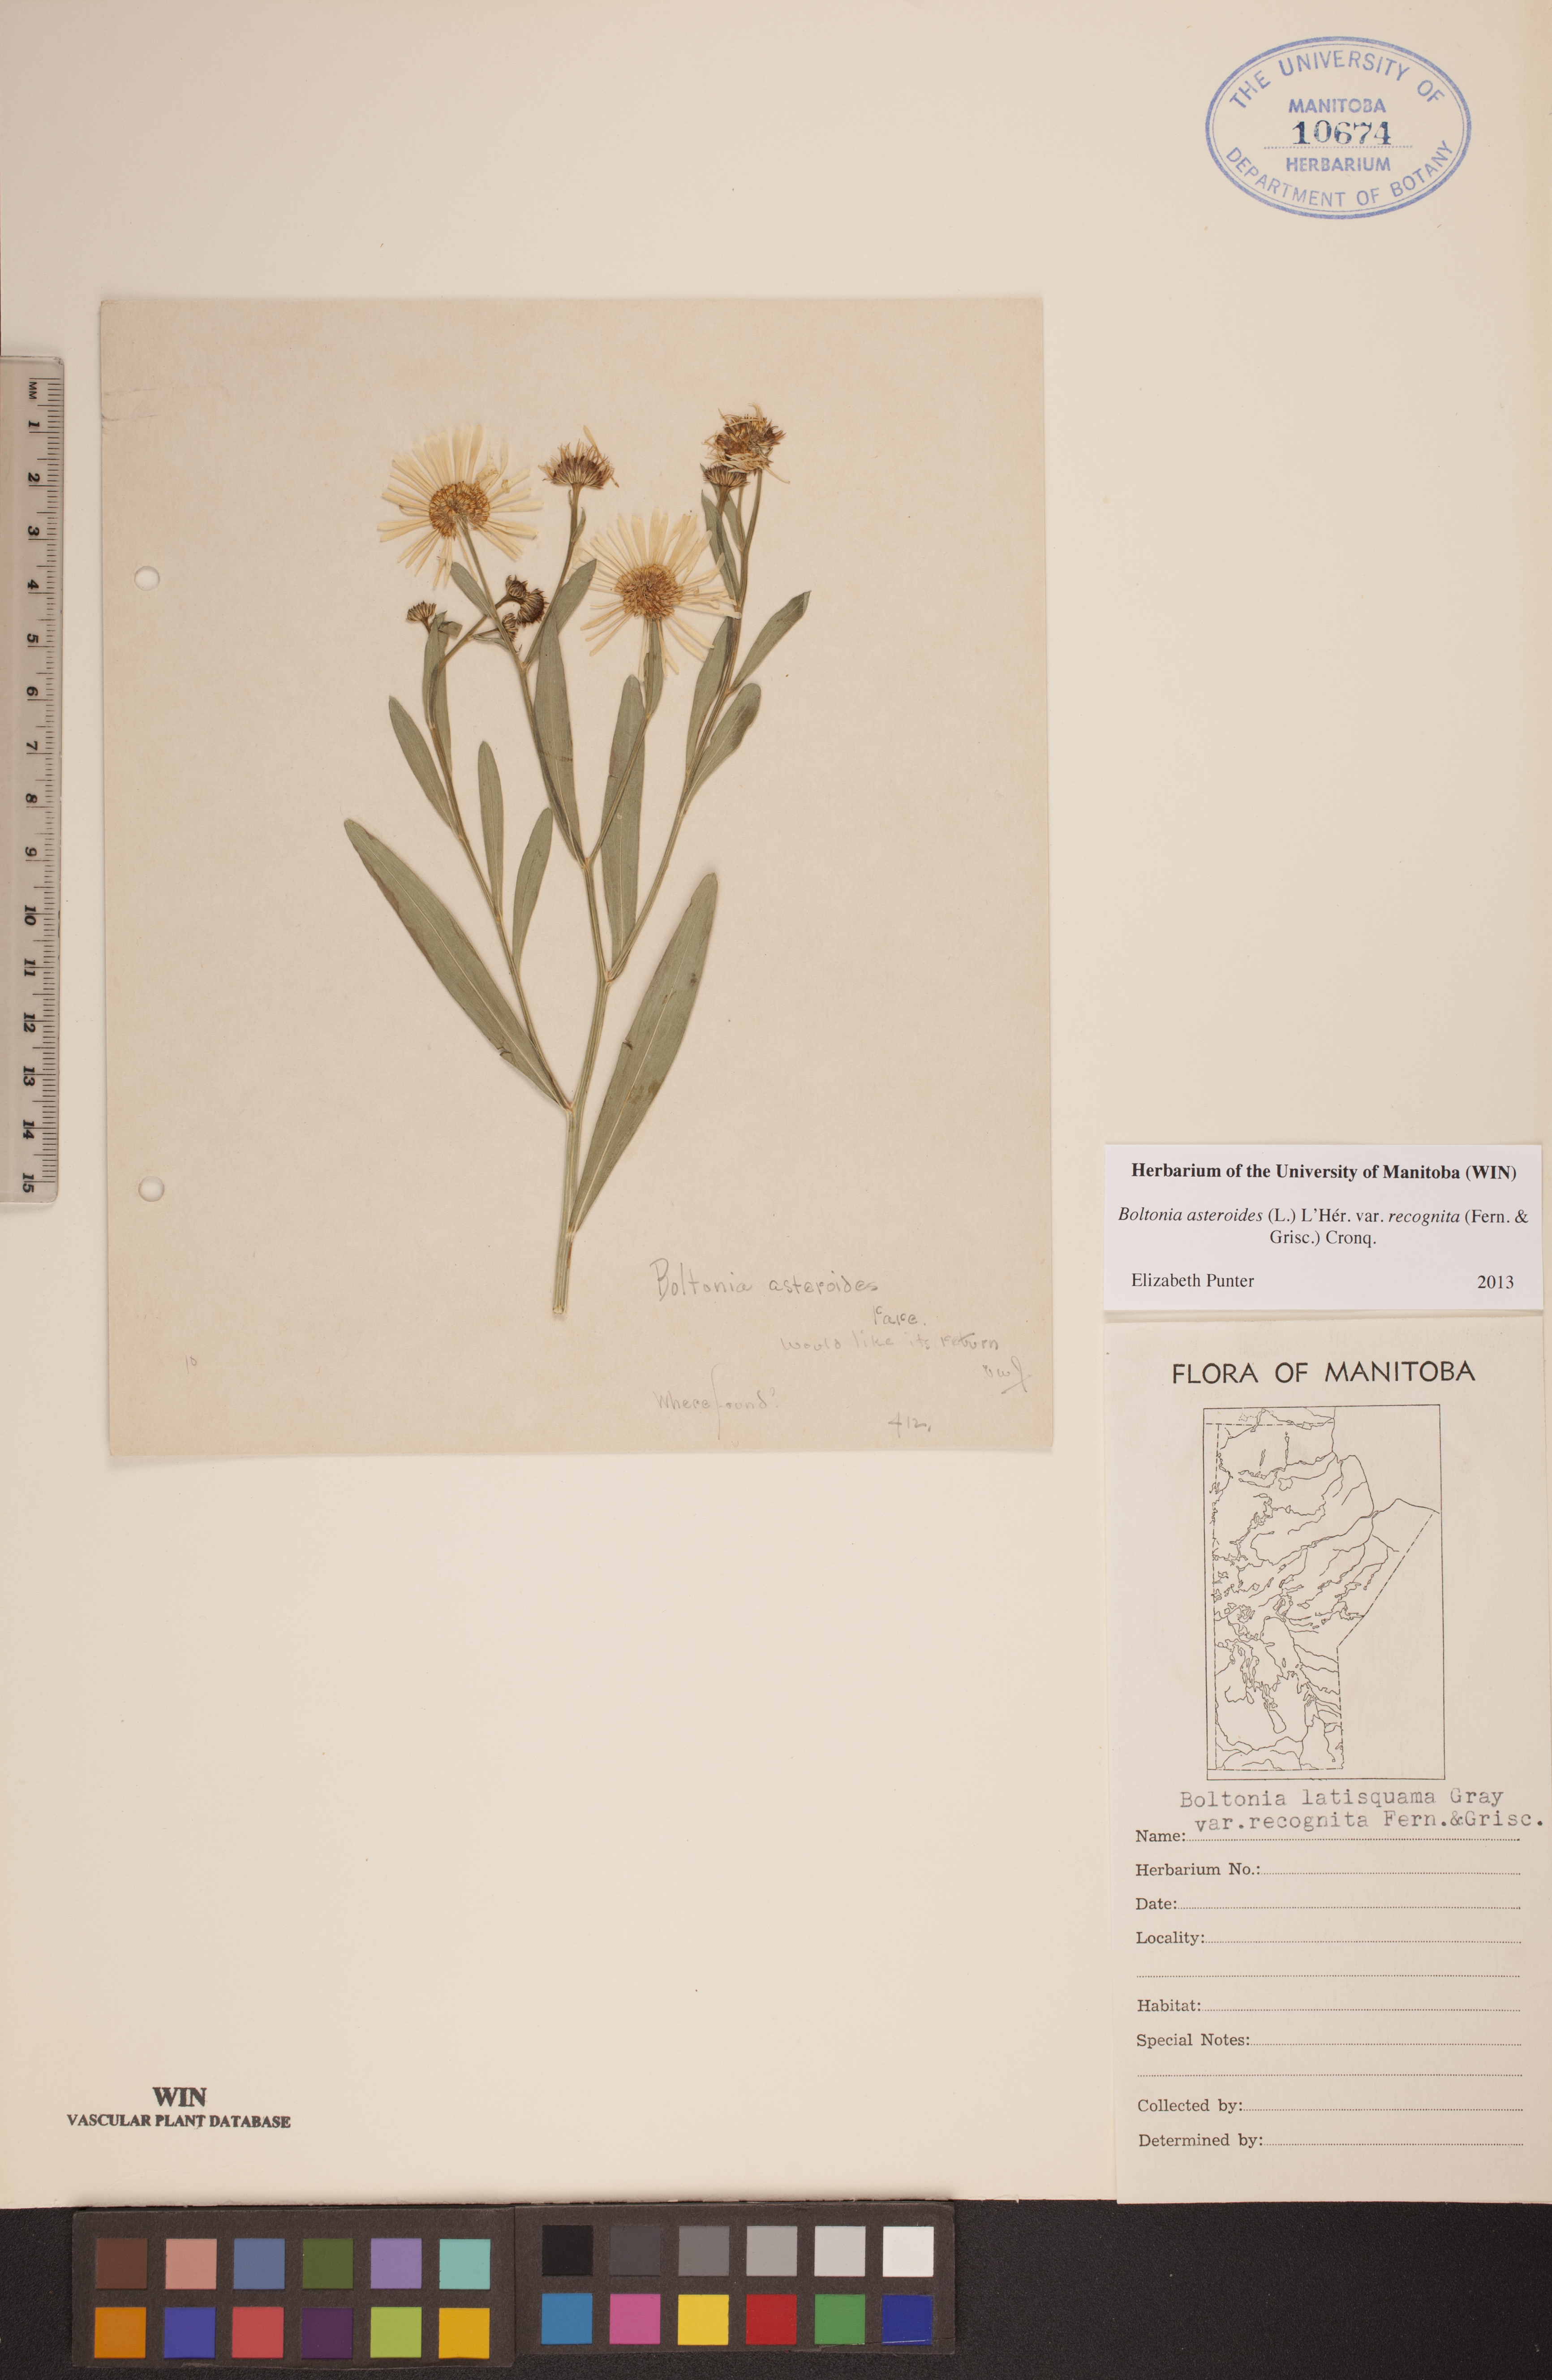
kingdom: Plantae
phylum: Tracheophyta
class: Magnoliopsida
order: Asterales
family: Asteraceae
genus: Boltonia
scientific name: Boltonia asteroides
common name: False chamomile
